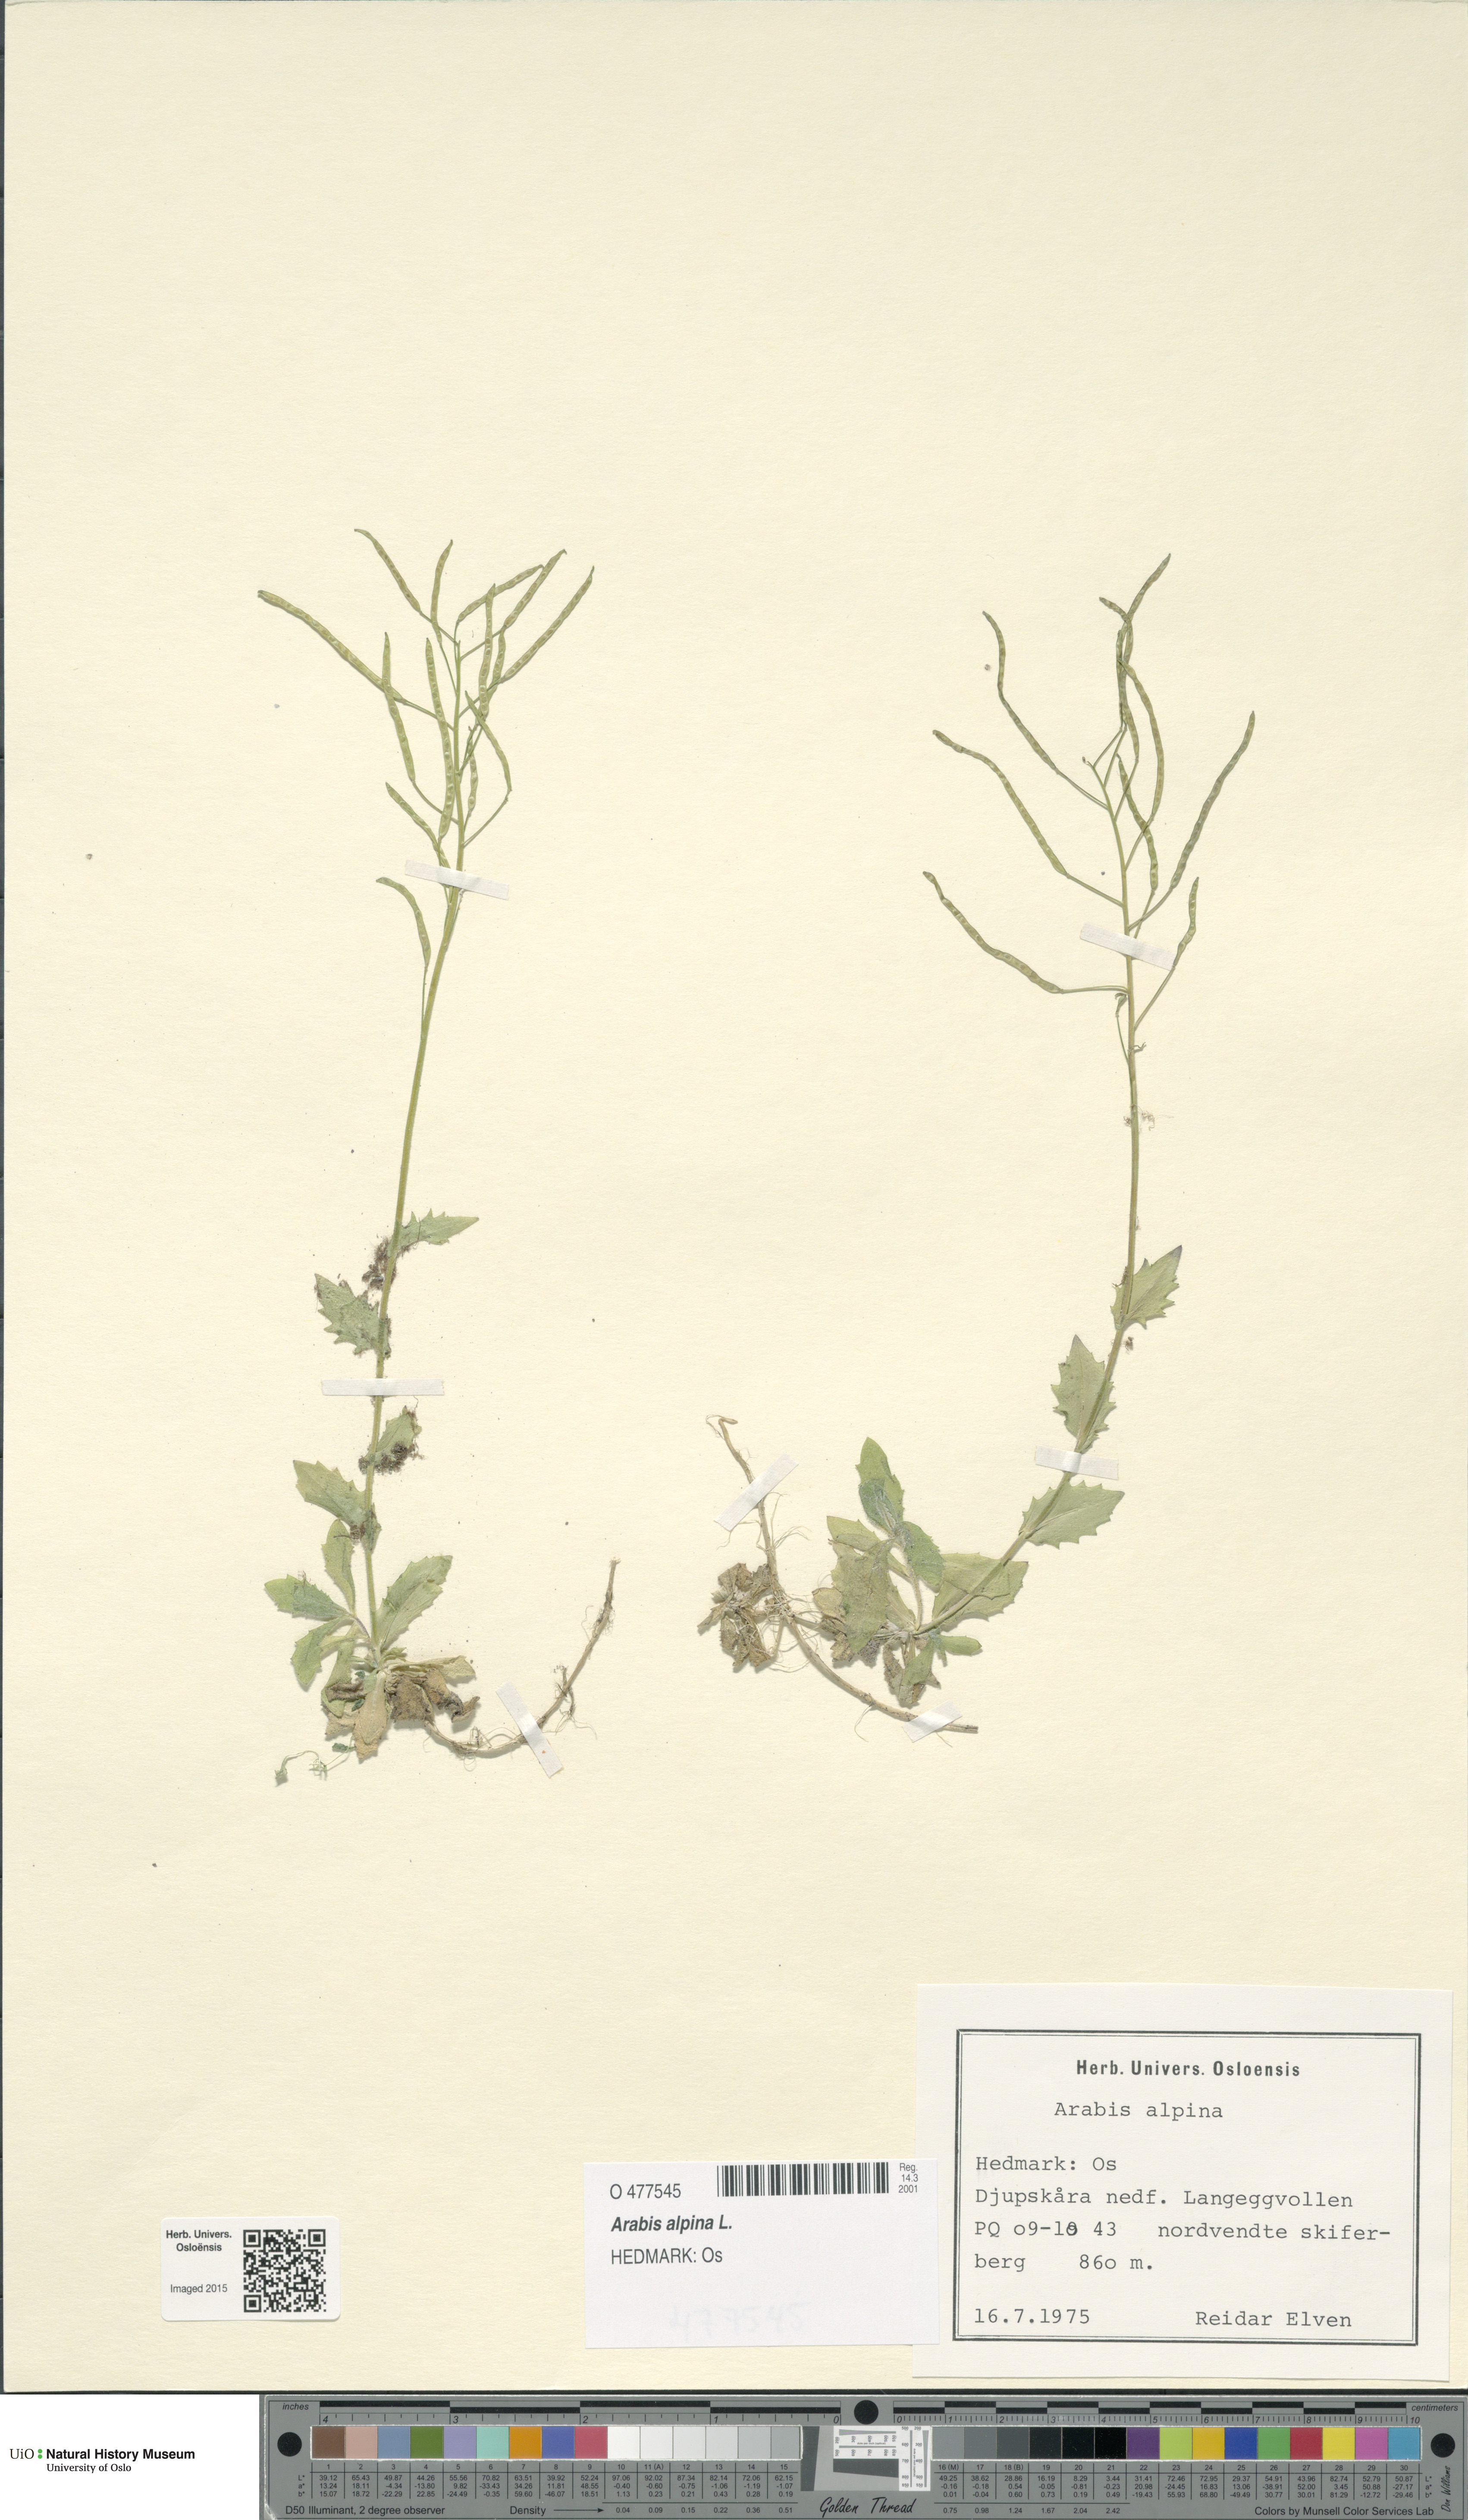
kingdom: Plantae
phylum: Tracheophyta
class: Magnoliopsida
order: Brassicales
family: Brassicaceae
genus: Arabis
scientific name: Arabis alpina
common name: Alpine rock-cress
